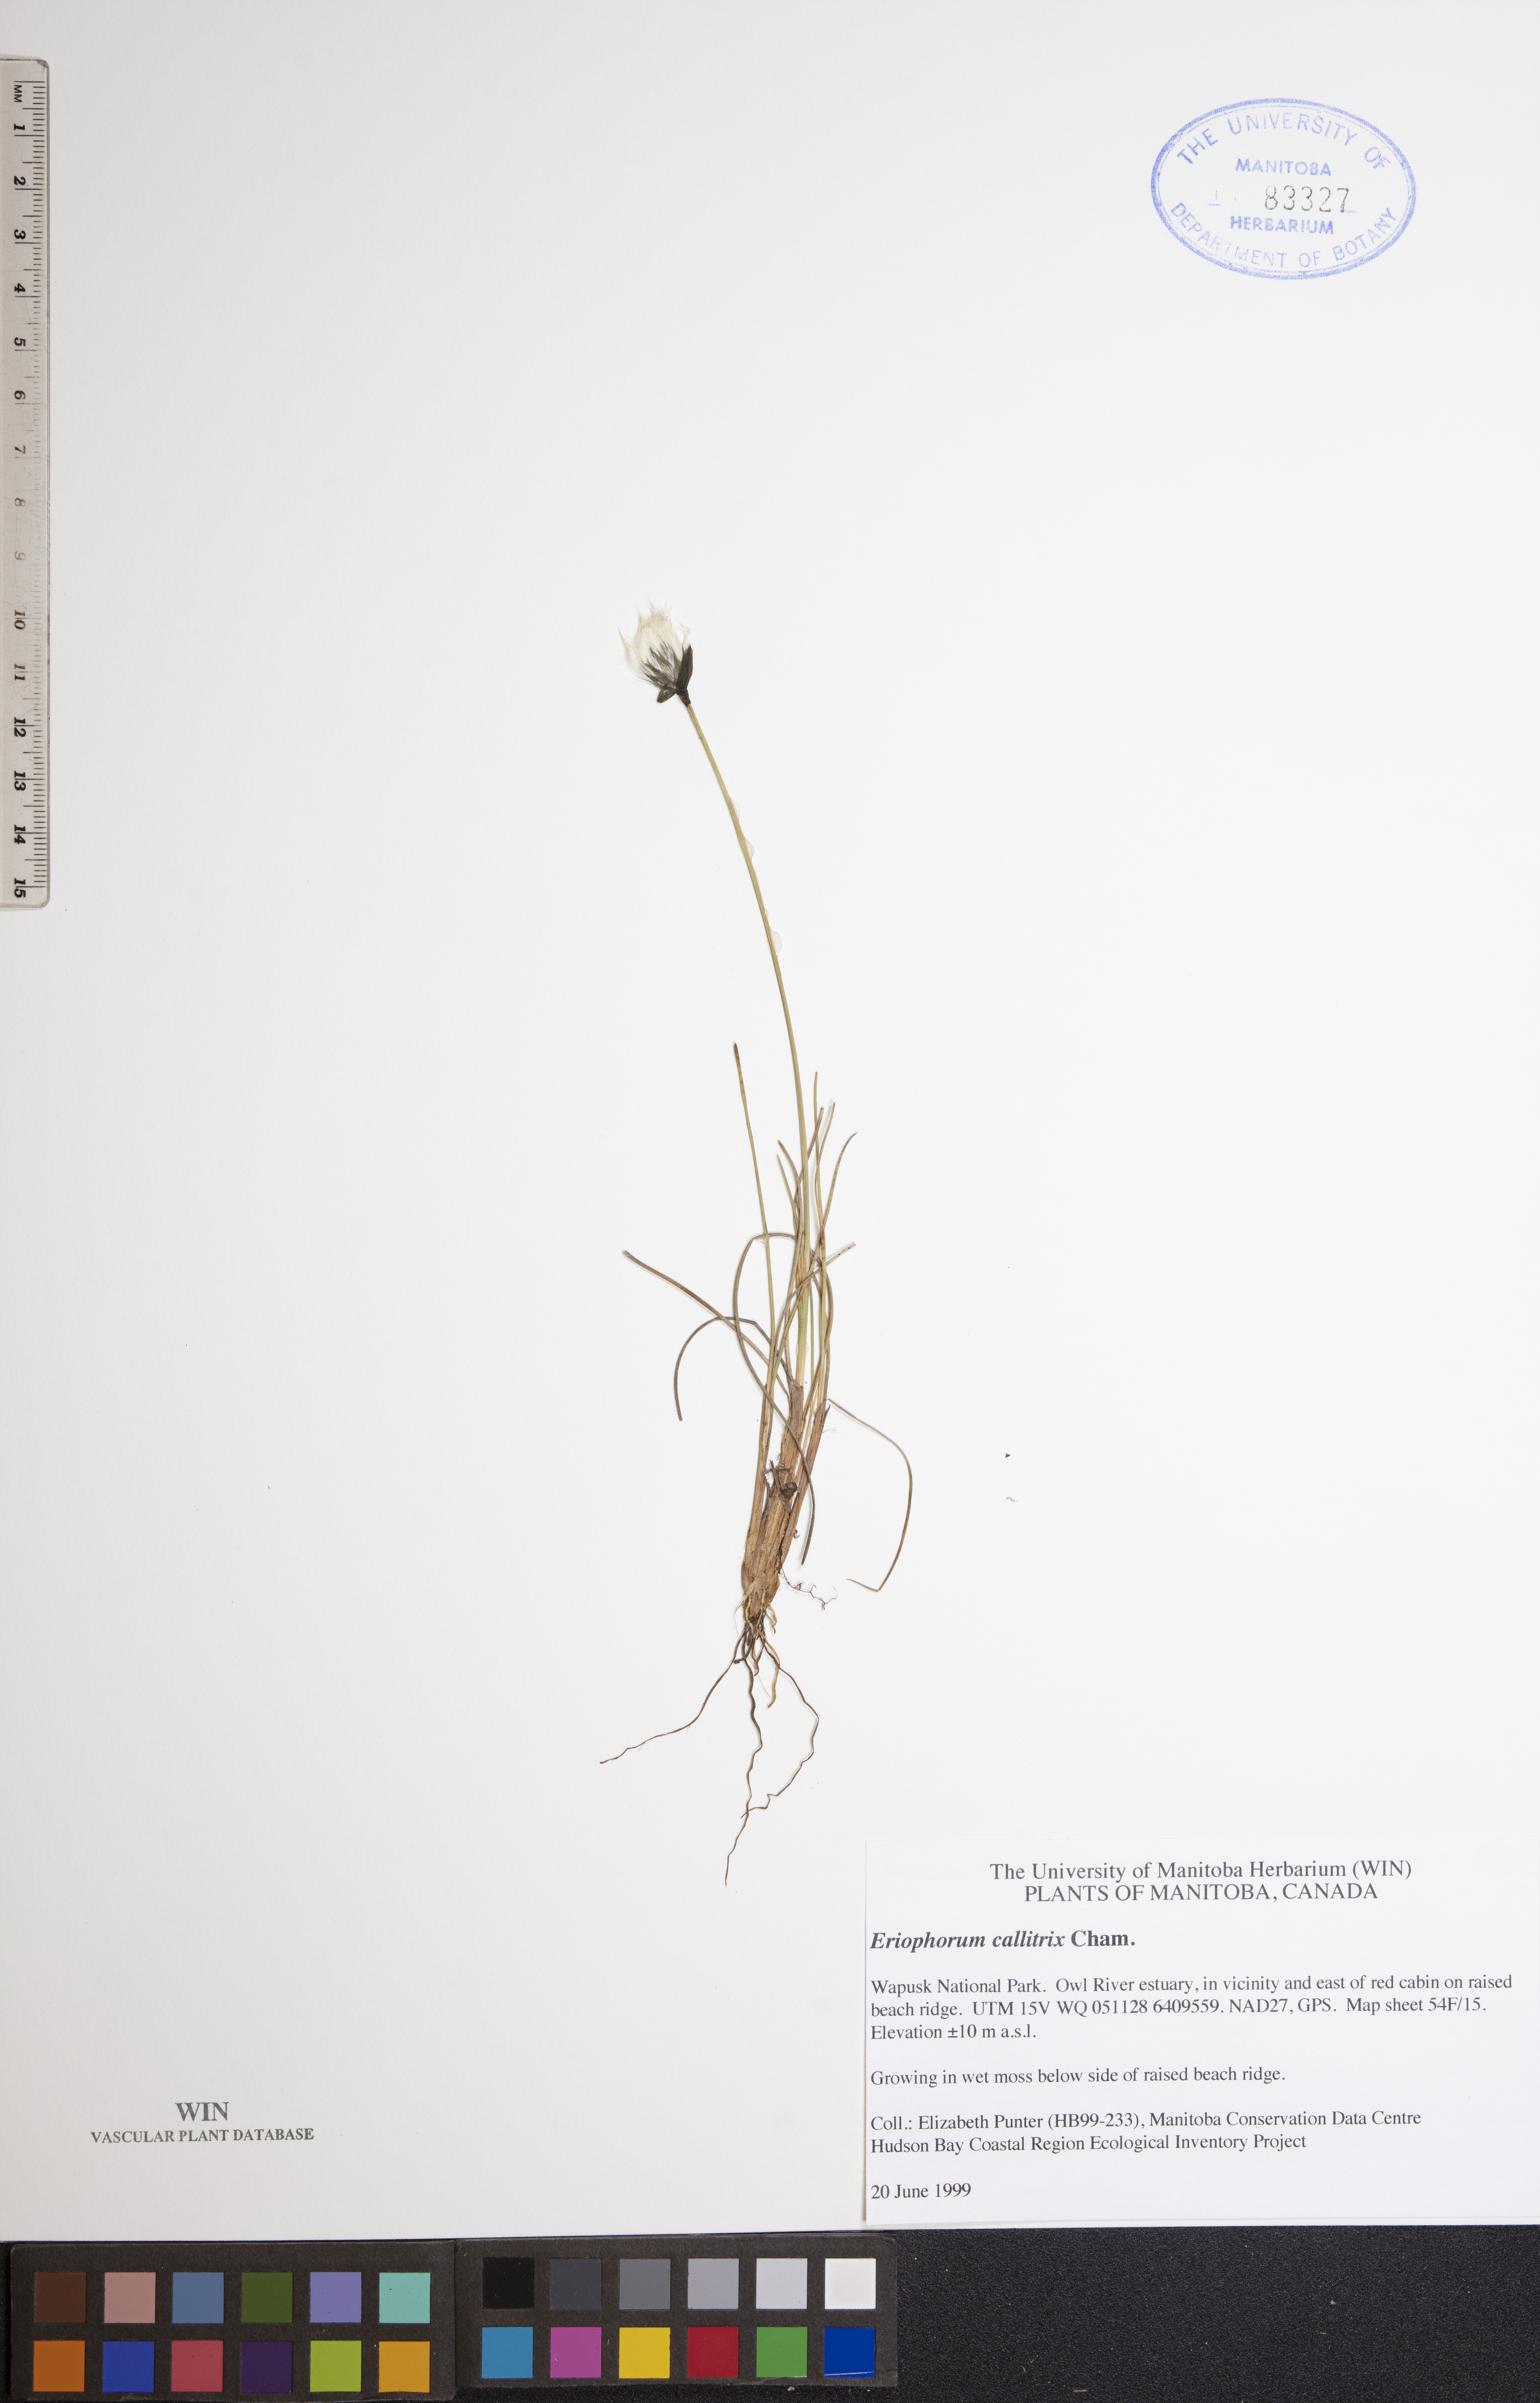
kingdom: Plantae
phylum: Tracheophyta
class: Liliopsida
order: Poales
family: Cyperaceae
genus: Eriophorum
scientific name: Eriophorum callitrix
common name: Arctic cottongrass
